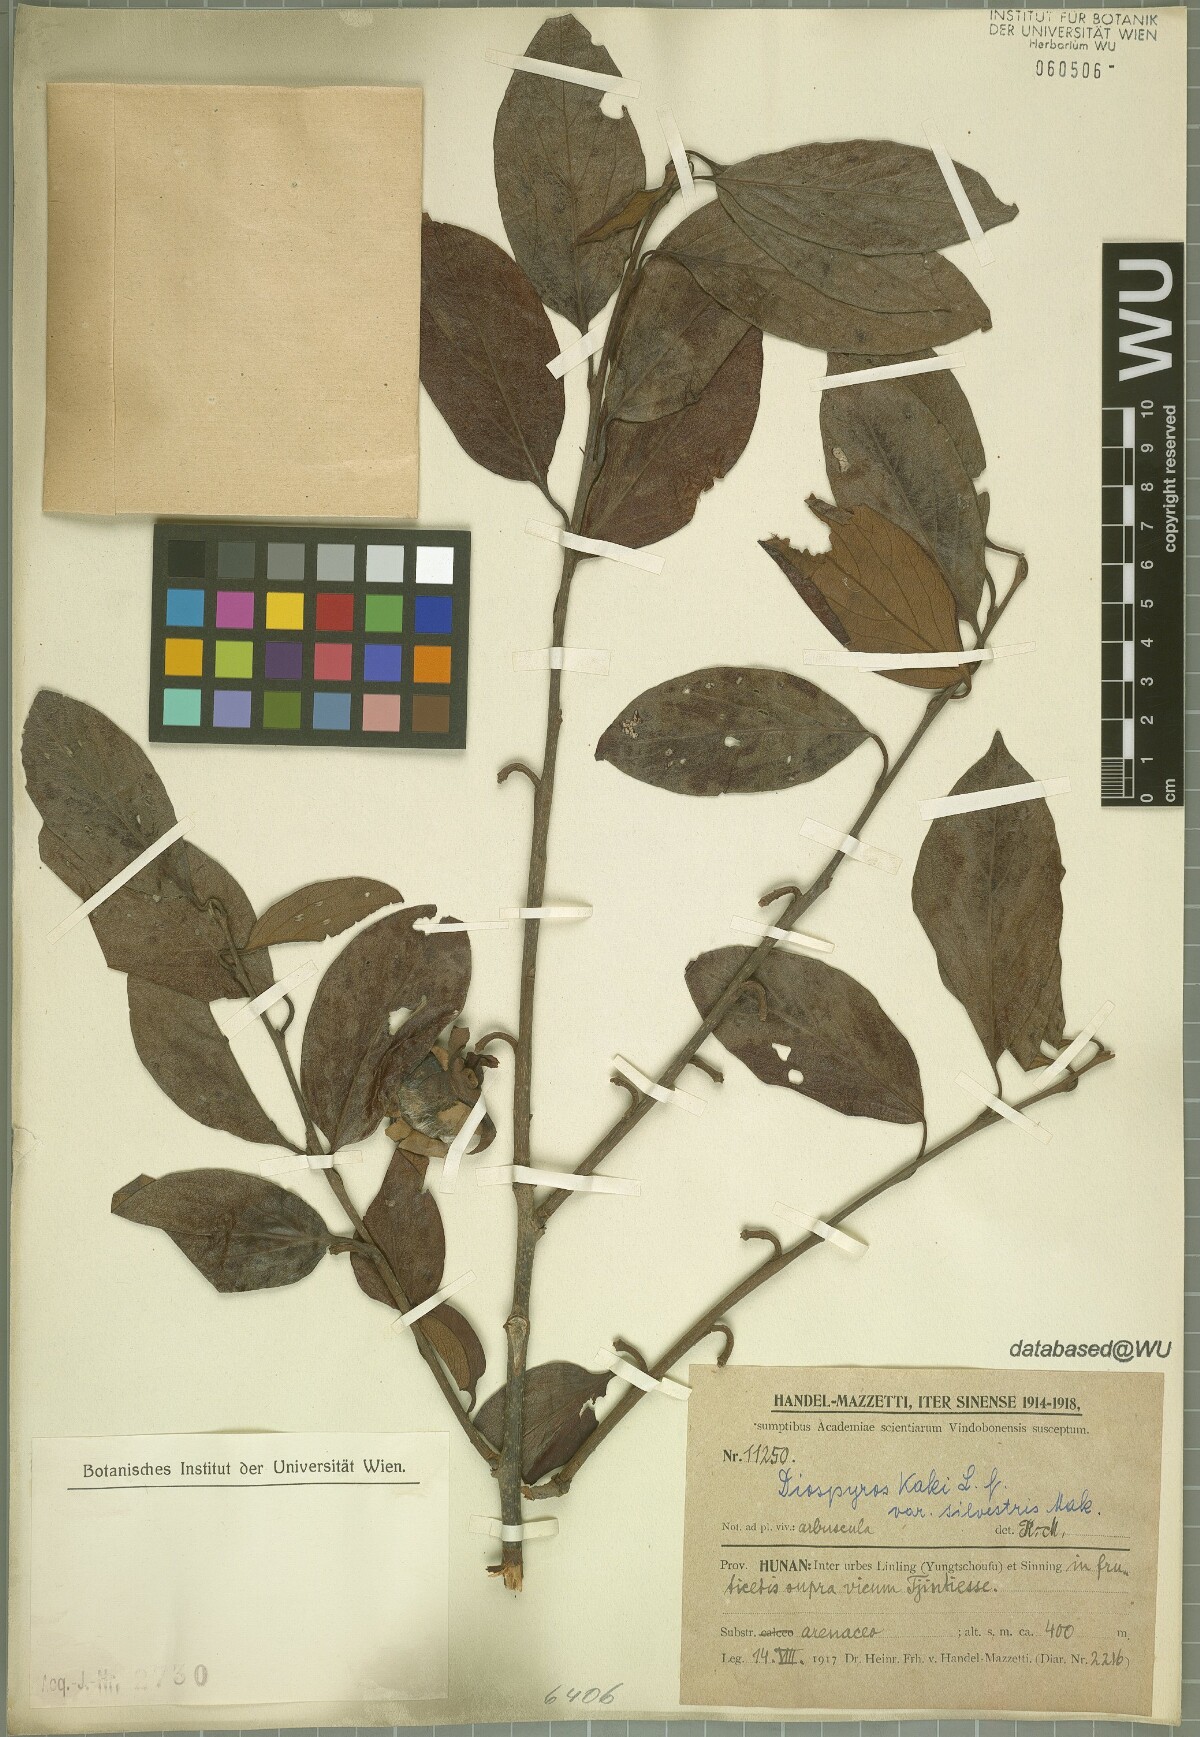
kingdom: Plantae
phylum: Tracheophyta
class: Magnoliopsida
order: Ericales
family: Ebenaceae
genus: Diospyros
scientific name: Diospyros kaki
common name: Persimmon
